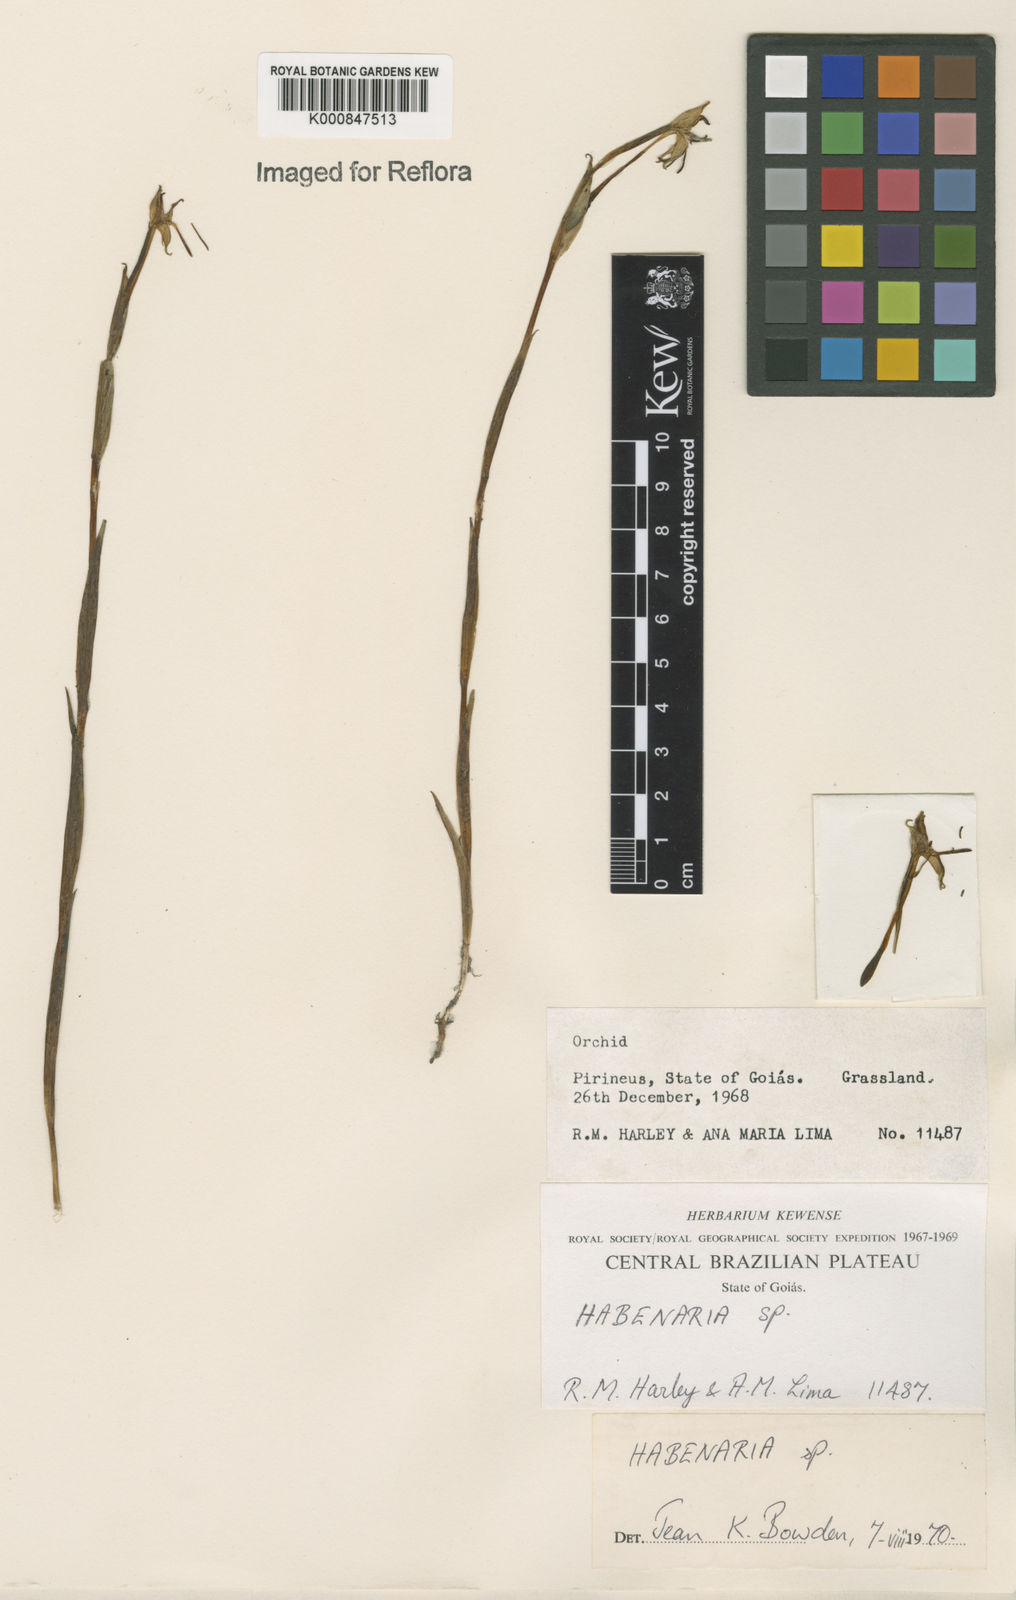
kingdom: Plantae
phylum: Tracheophyta
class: Liliopsida
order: Asparagales
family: Orchidaceae
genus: Habenaria
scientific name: Habenaria
